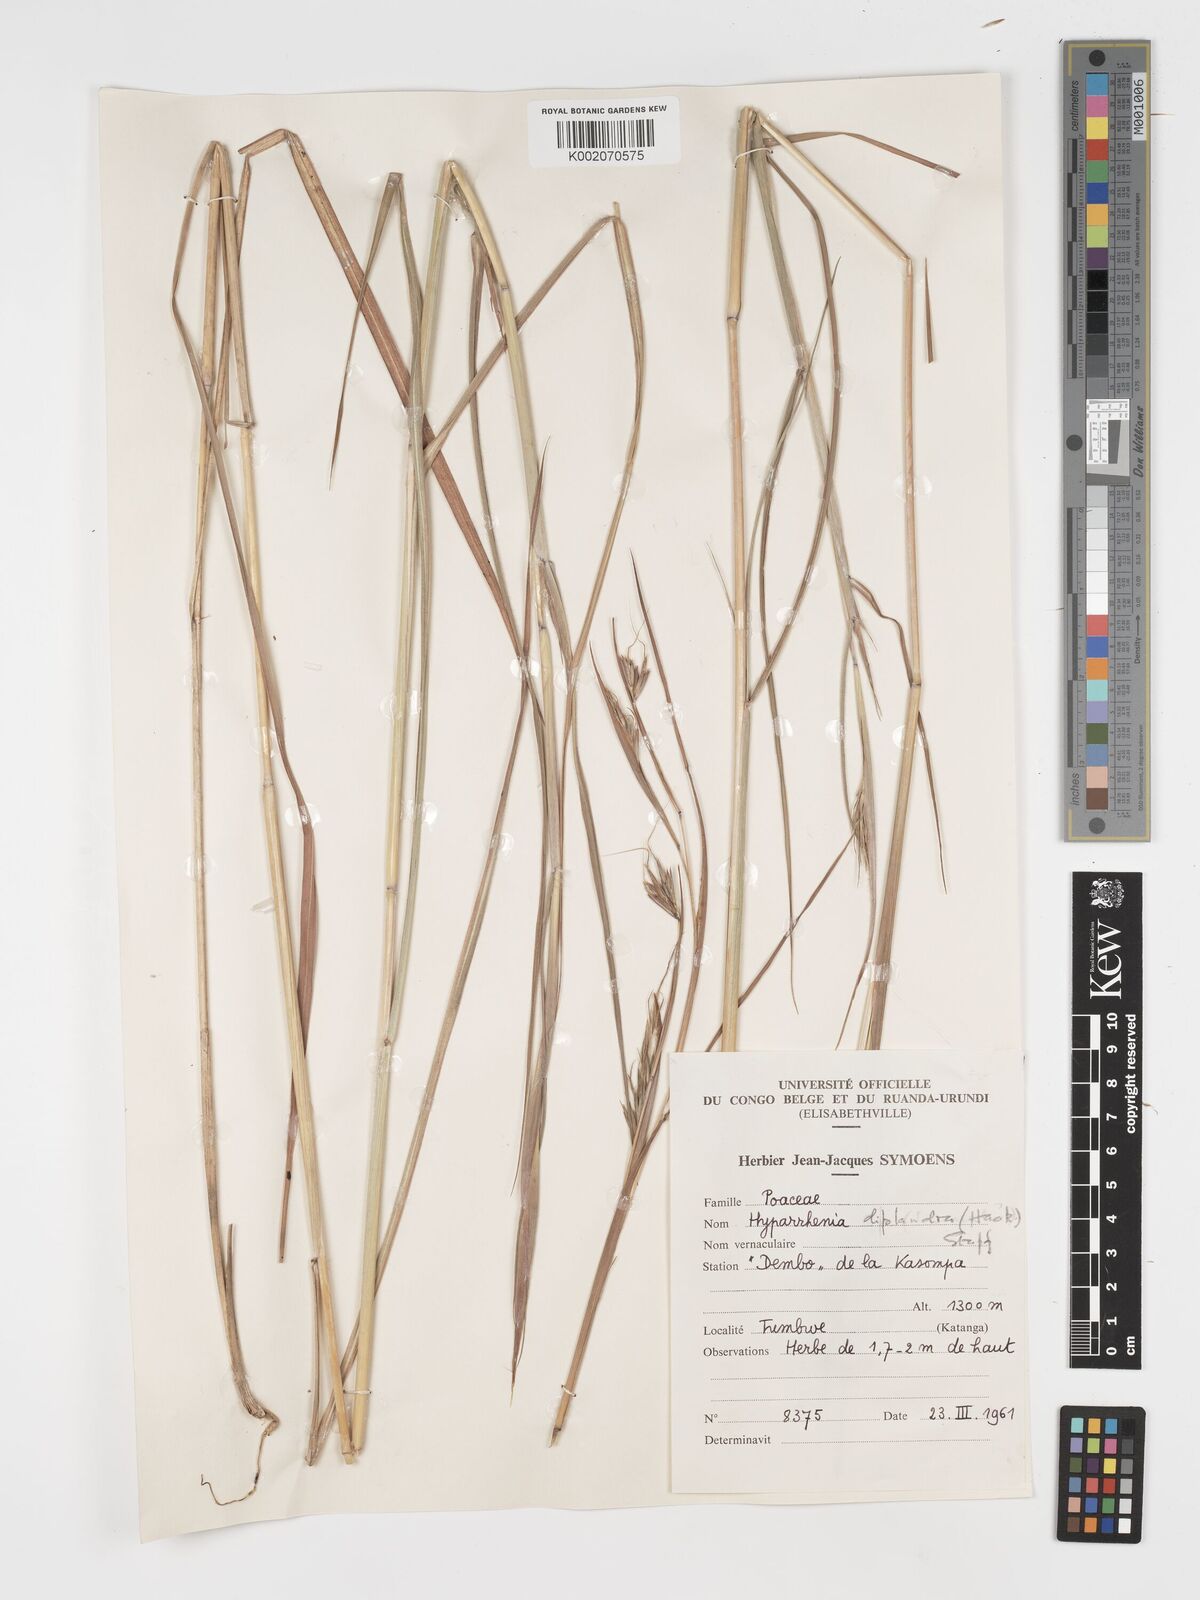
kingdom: Plantae
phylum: Tracheophyta
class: Liliopsida
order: Poales
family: Poaceae
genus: Hyparrhenia
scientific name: Hyparrhenia diplandra
